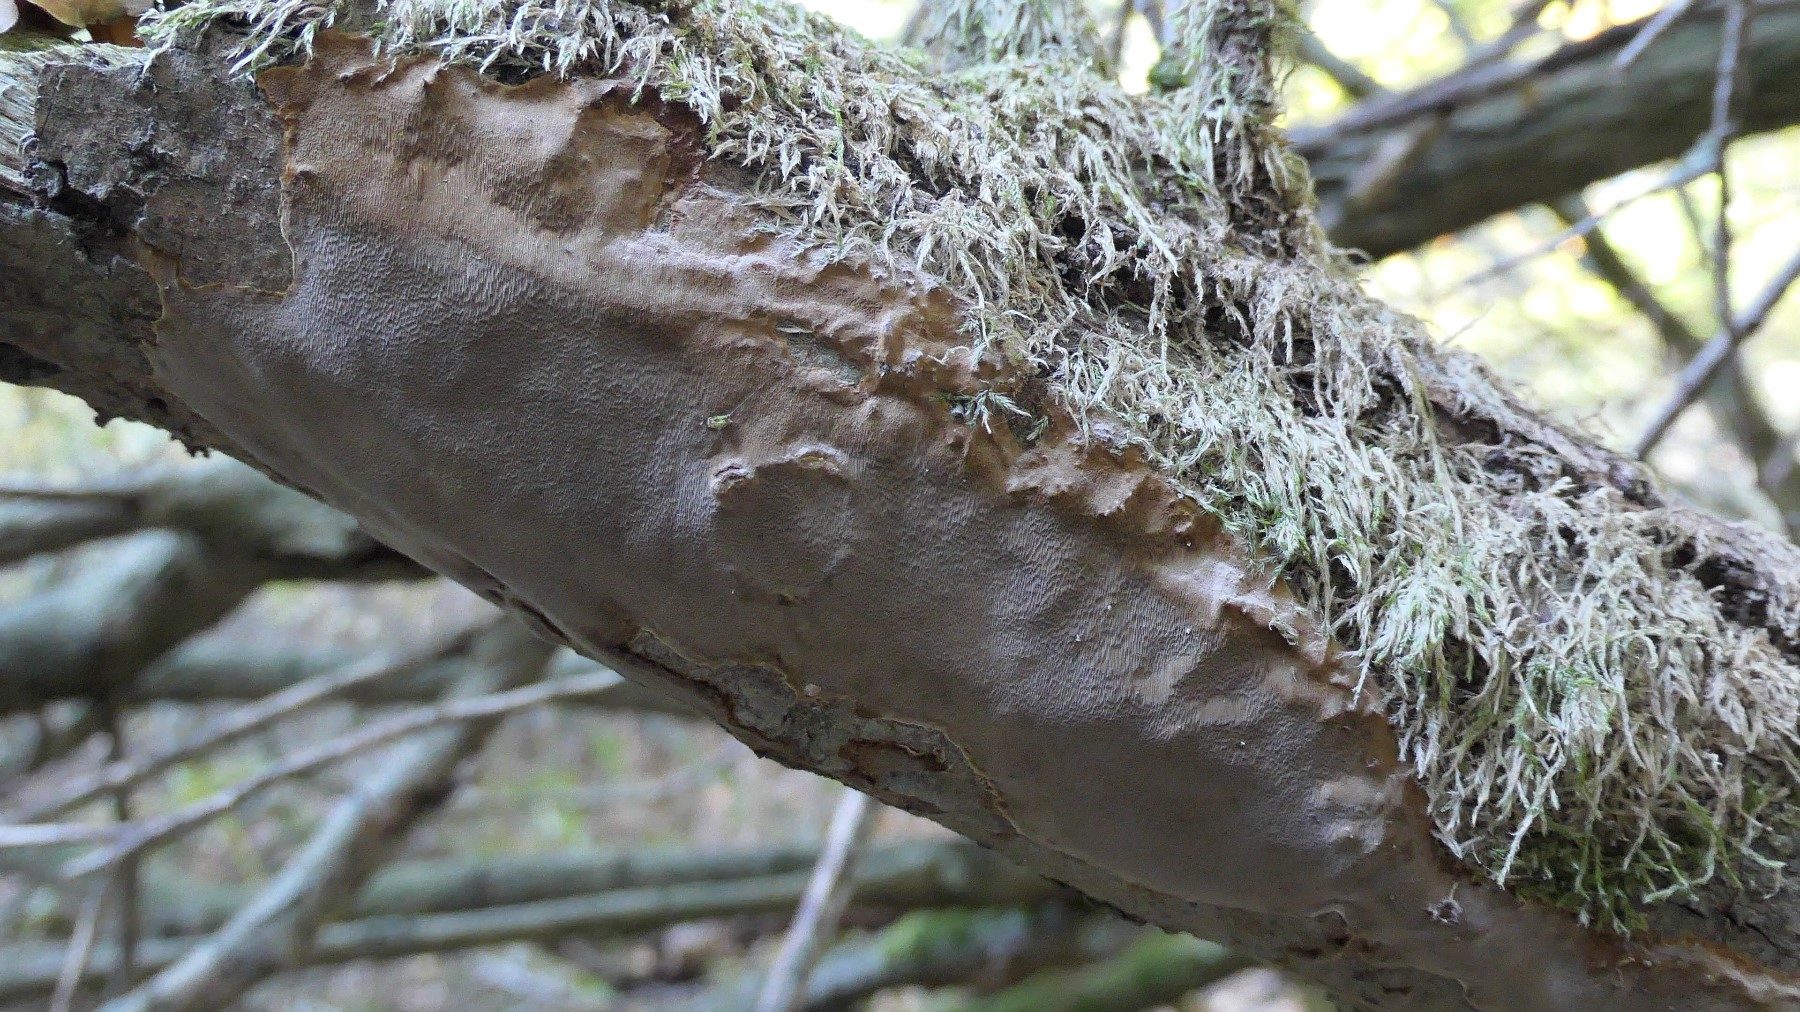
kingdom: Fungi
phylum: Basidiomycota
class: Agaricomycetes
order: Hymenochaetales
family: Hymenochaetaceae
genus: Fomitiporia
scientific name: Fomitiporia punctata
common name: pude-ildporesvamp
